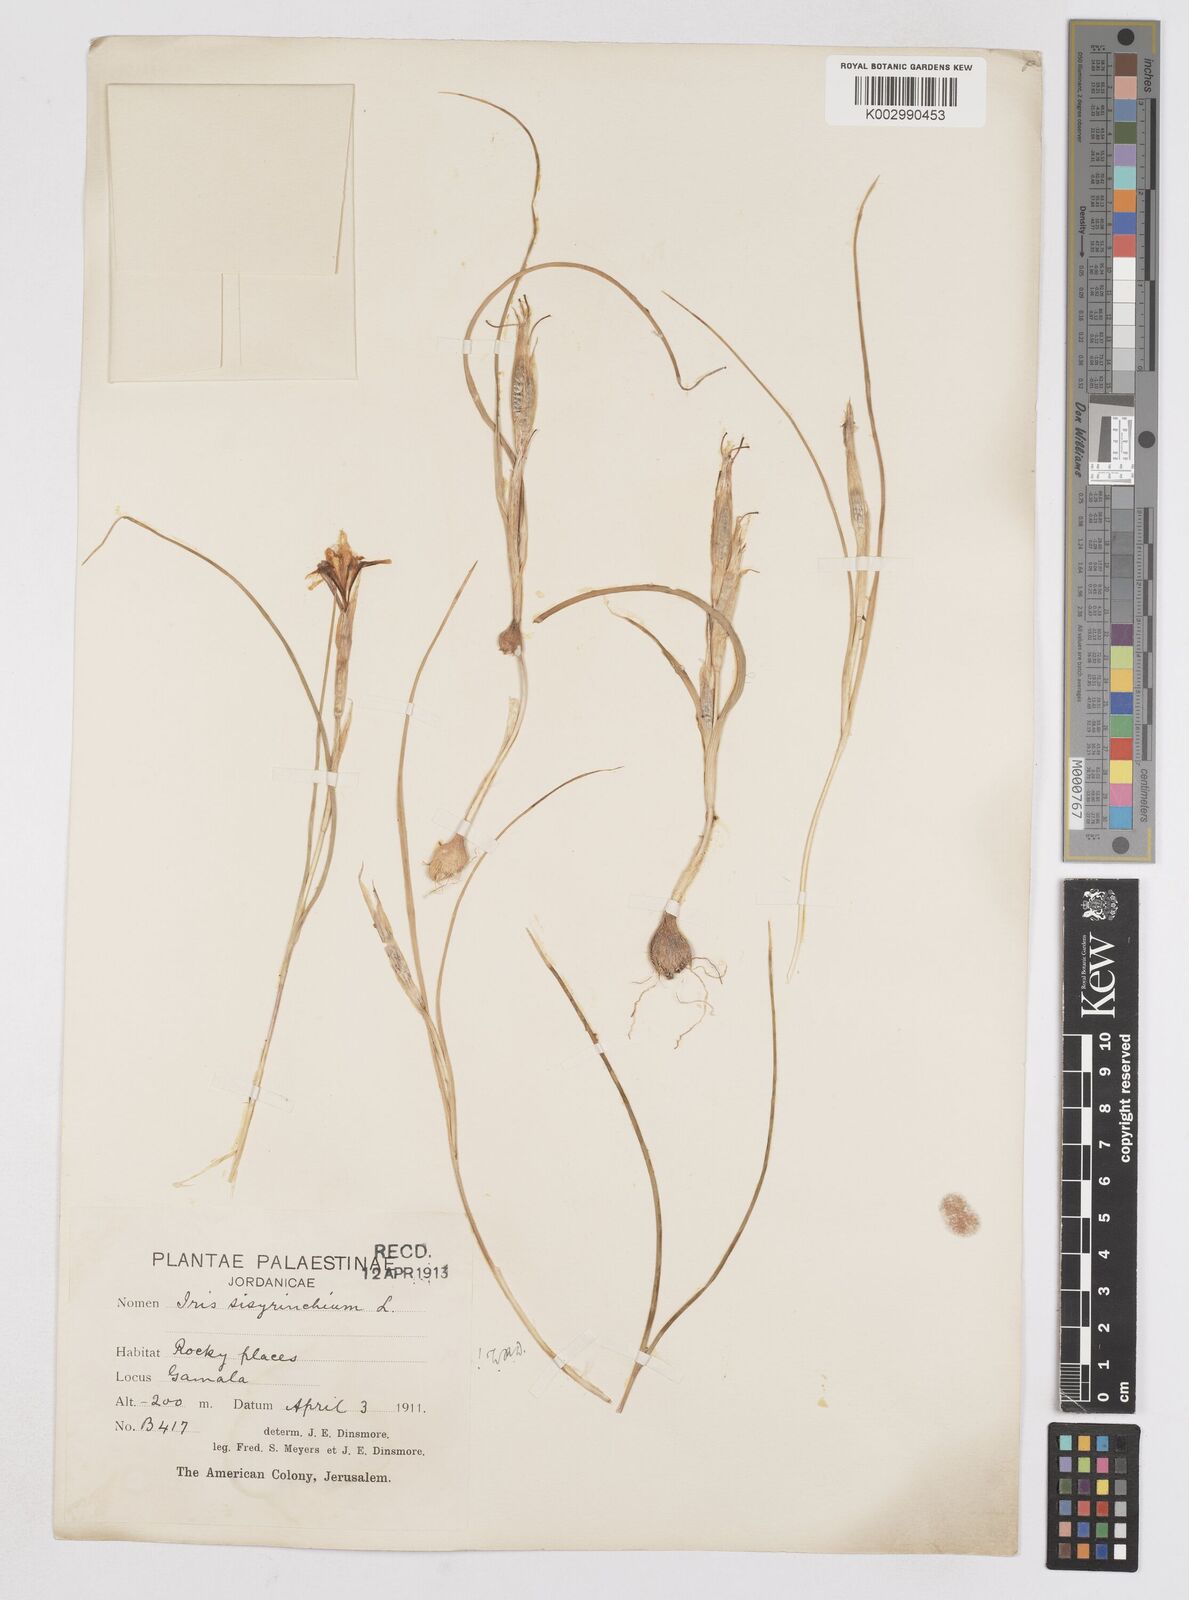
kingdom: Plantae
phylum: Tracheophyta
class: Liliopsida
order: Asparagales
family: Iridaceae
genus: Moraea
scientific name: Moraea sisyrinchium
